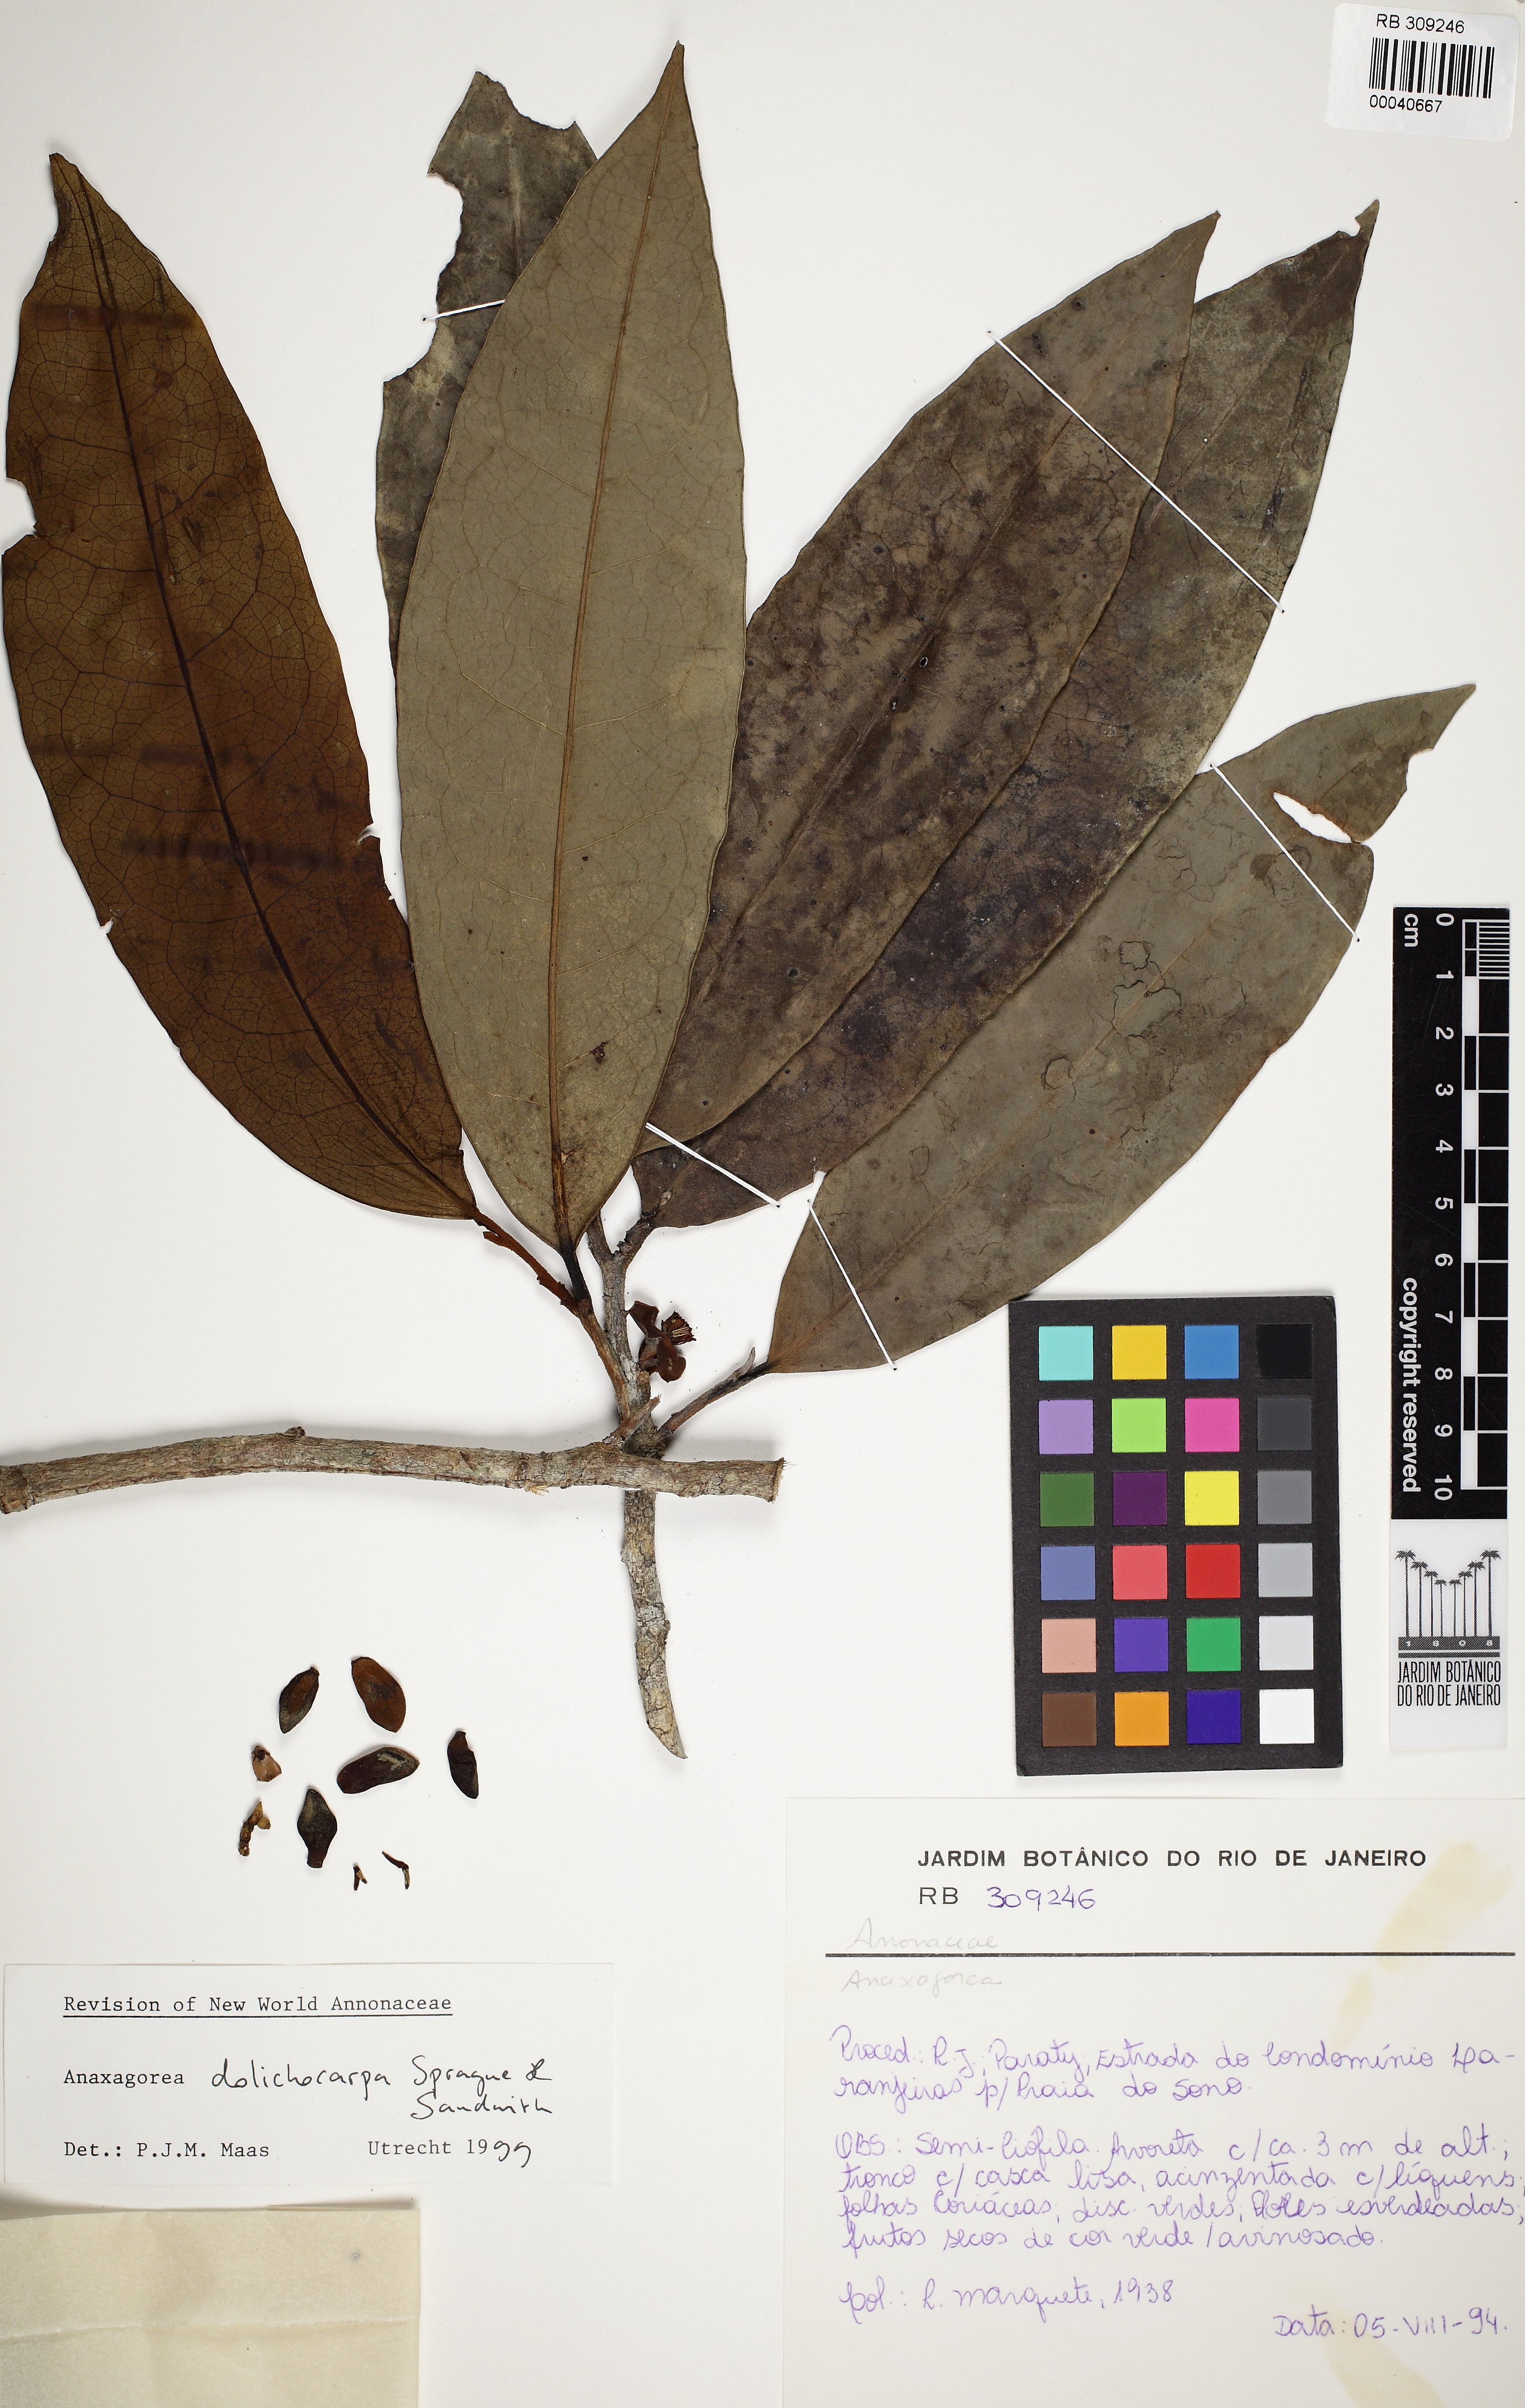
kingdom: Plantae
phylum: Tracheophyta
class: Magnoliopsida
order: Magnoliales
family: Annonaceae
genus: Anaxagorea
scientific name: Anaxagorea dolichocarpa
